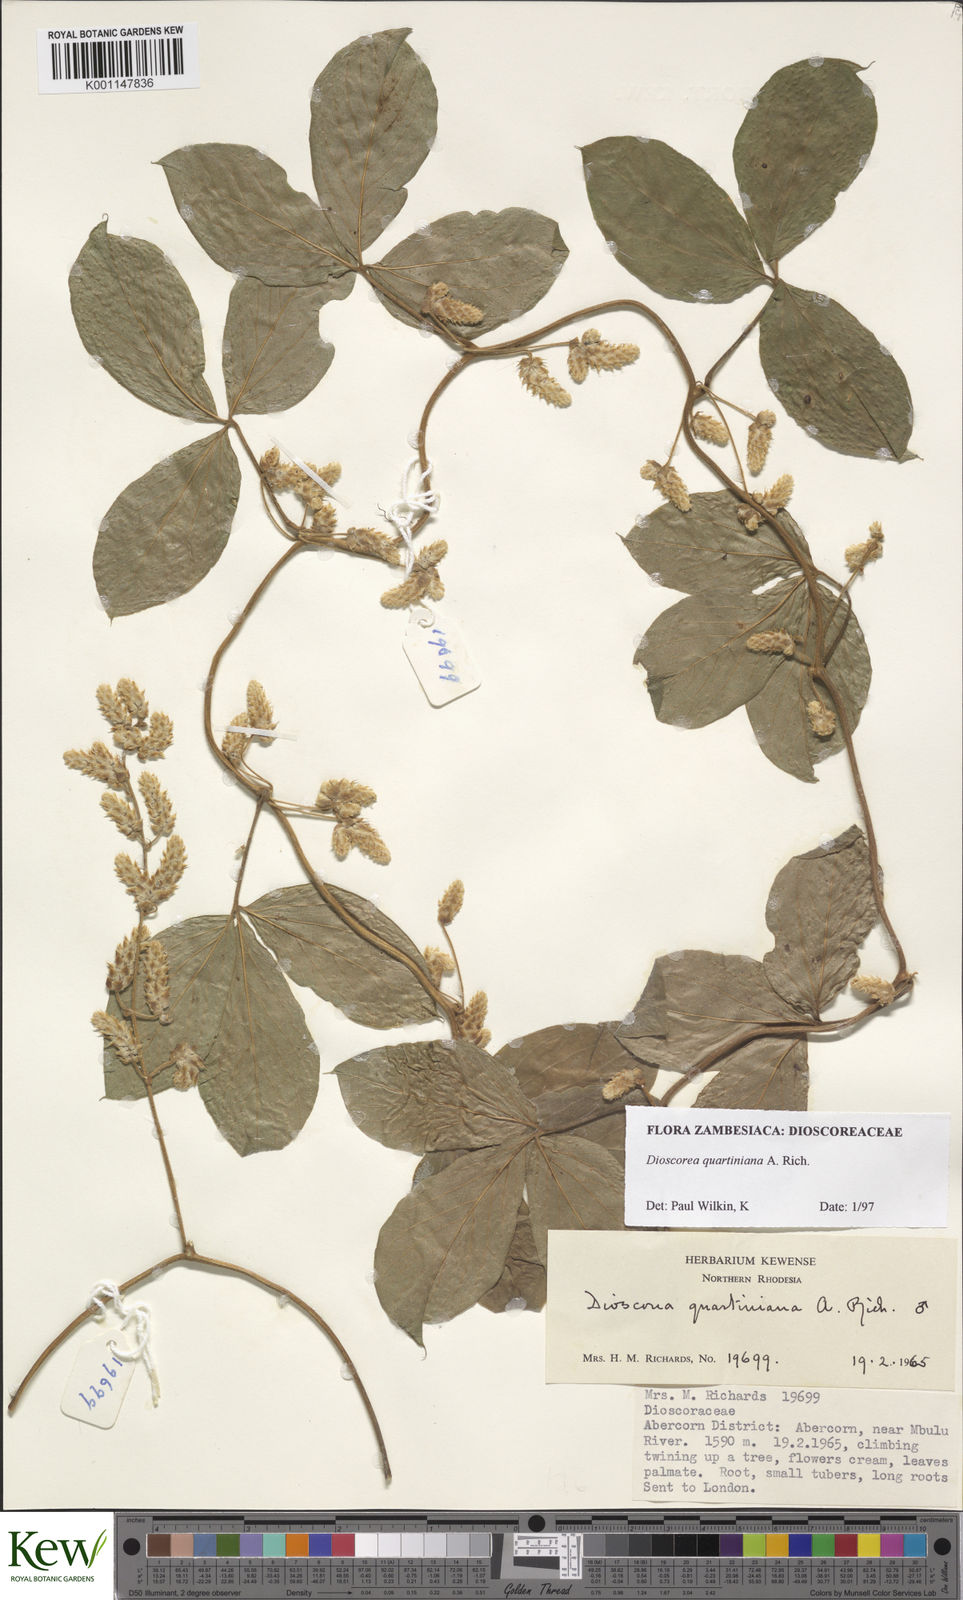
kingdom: Plantae
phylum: Tracheophyta
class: Liliopsida
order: Dioscoreales
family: Dioscoreaceae
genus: Dioscorea
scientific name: Dioscorea quartiniana
